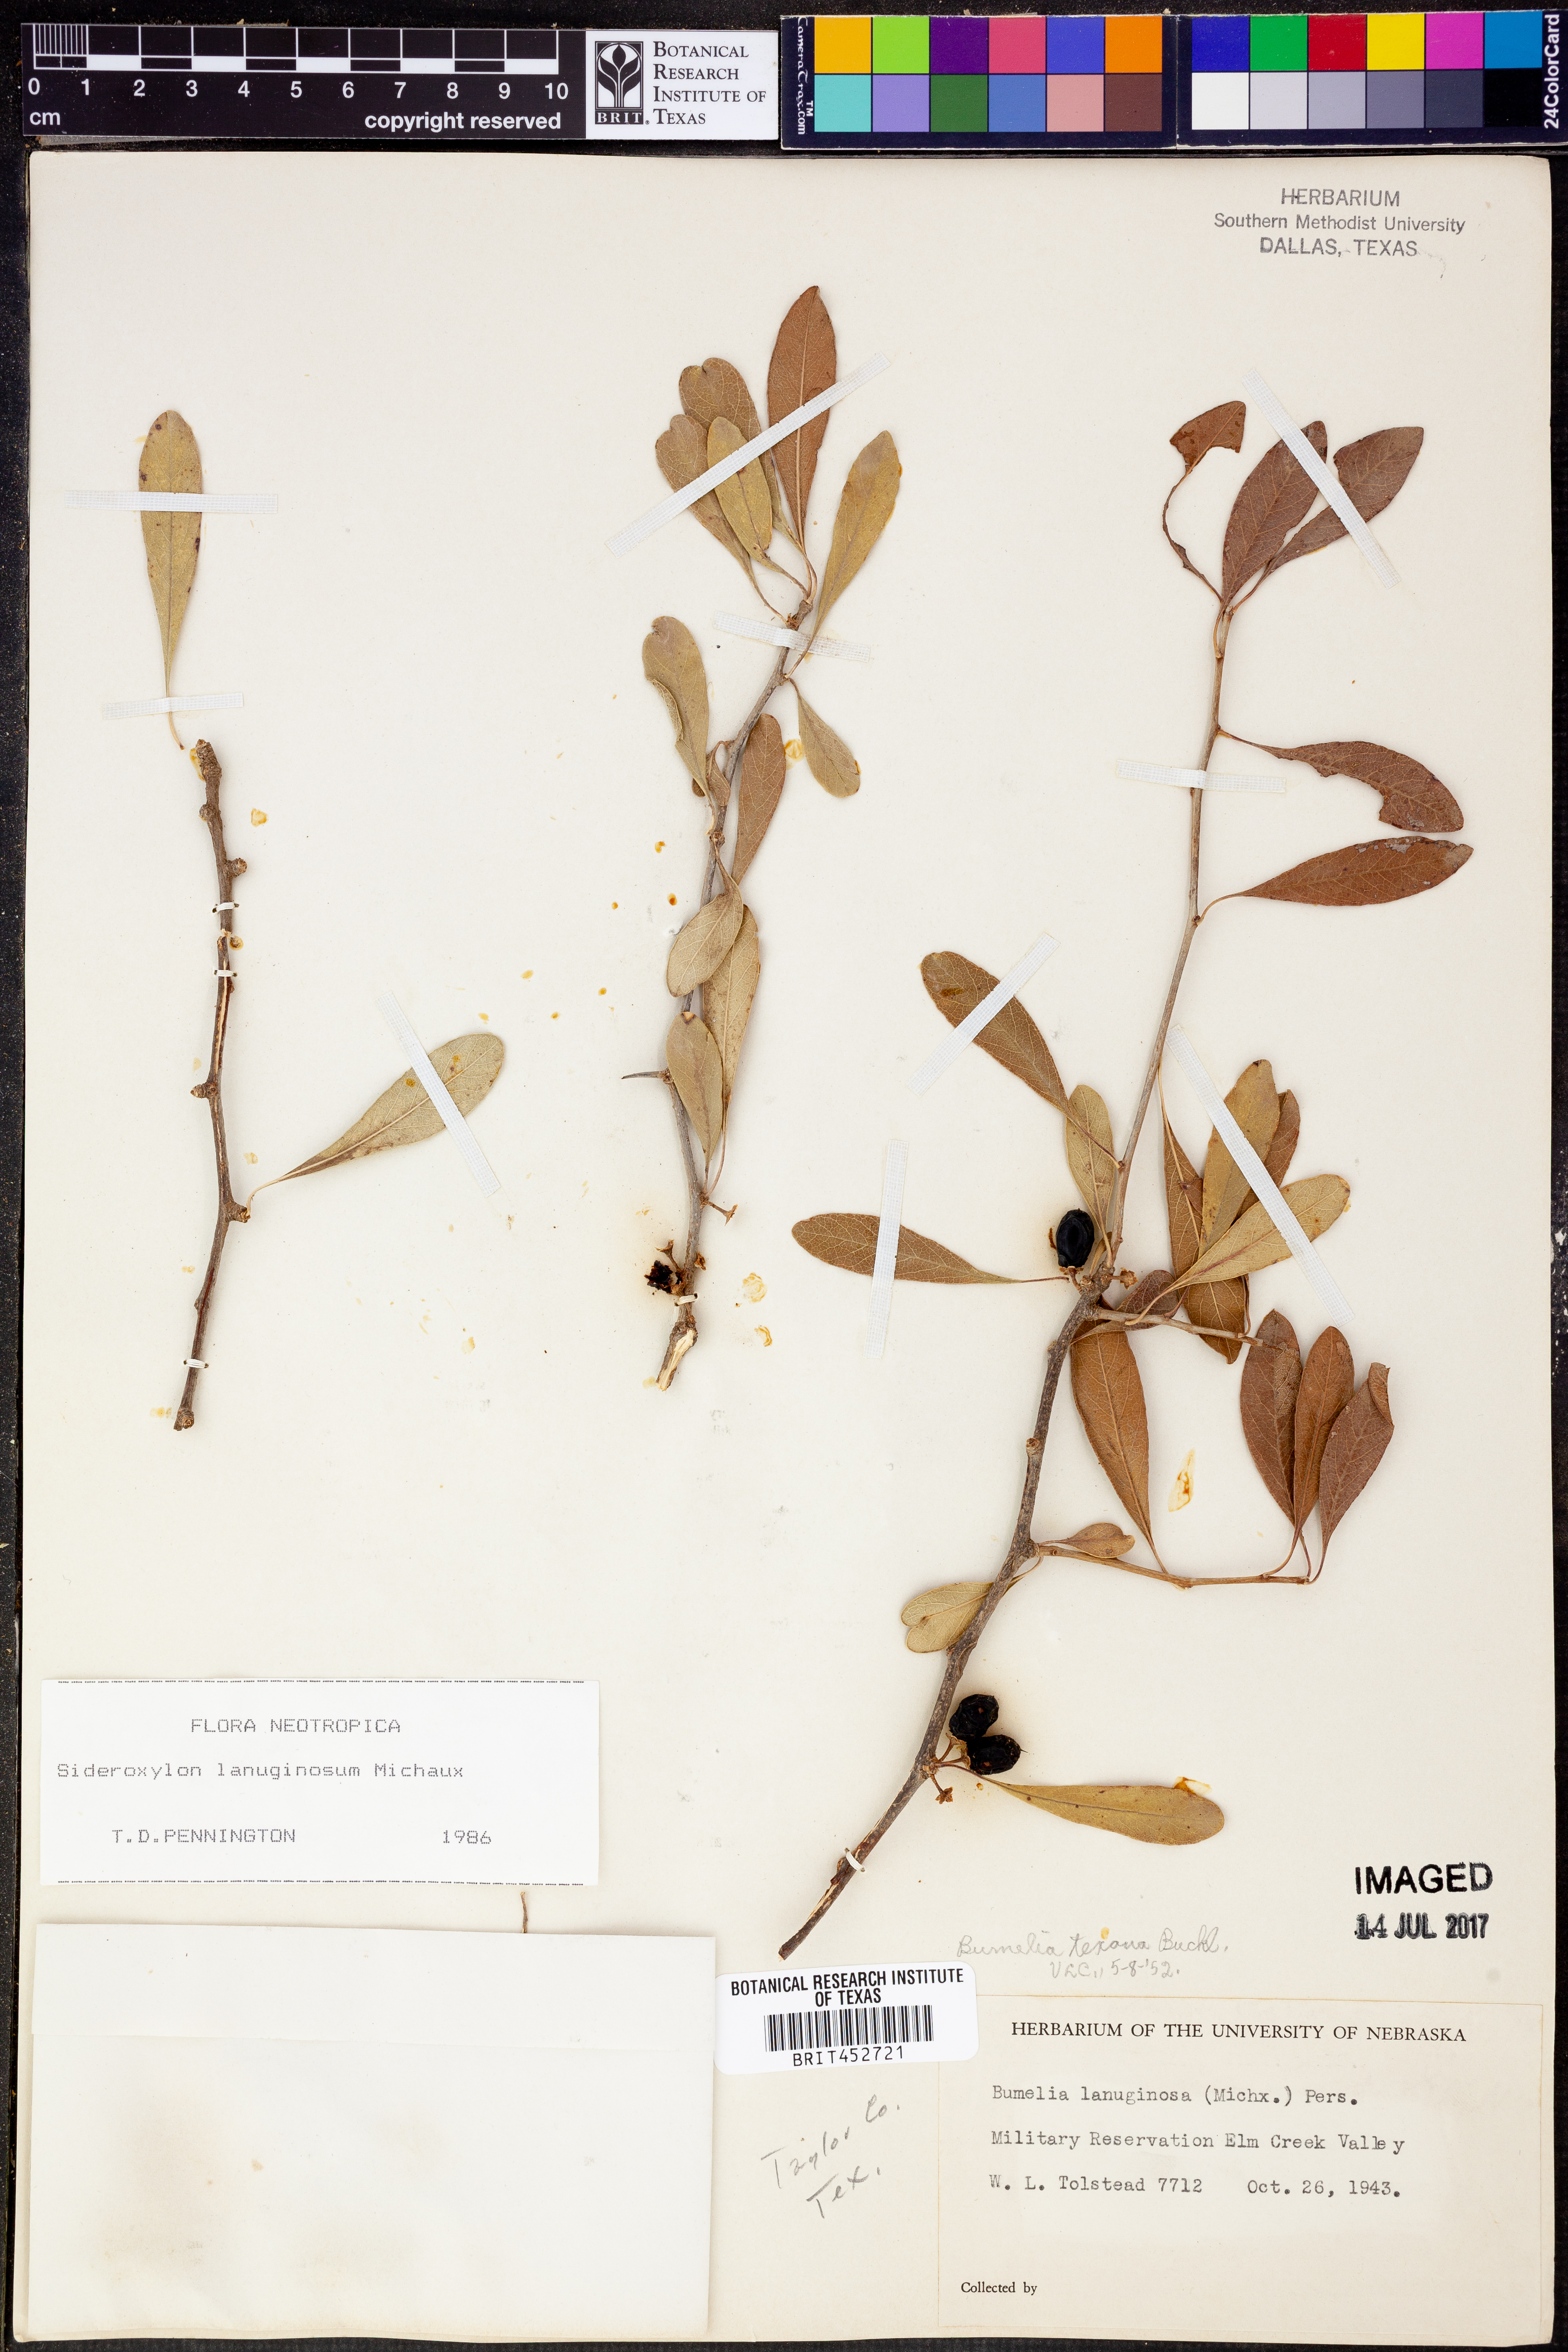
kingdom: Plantae
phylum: Tracheophyta
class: Magnoliopsida
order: Ericales
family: Sapotaceae
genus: Sideroxylon
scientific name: Sideroxylon lanuginosum
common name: Chittamwood
